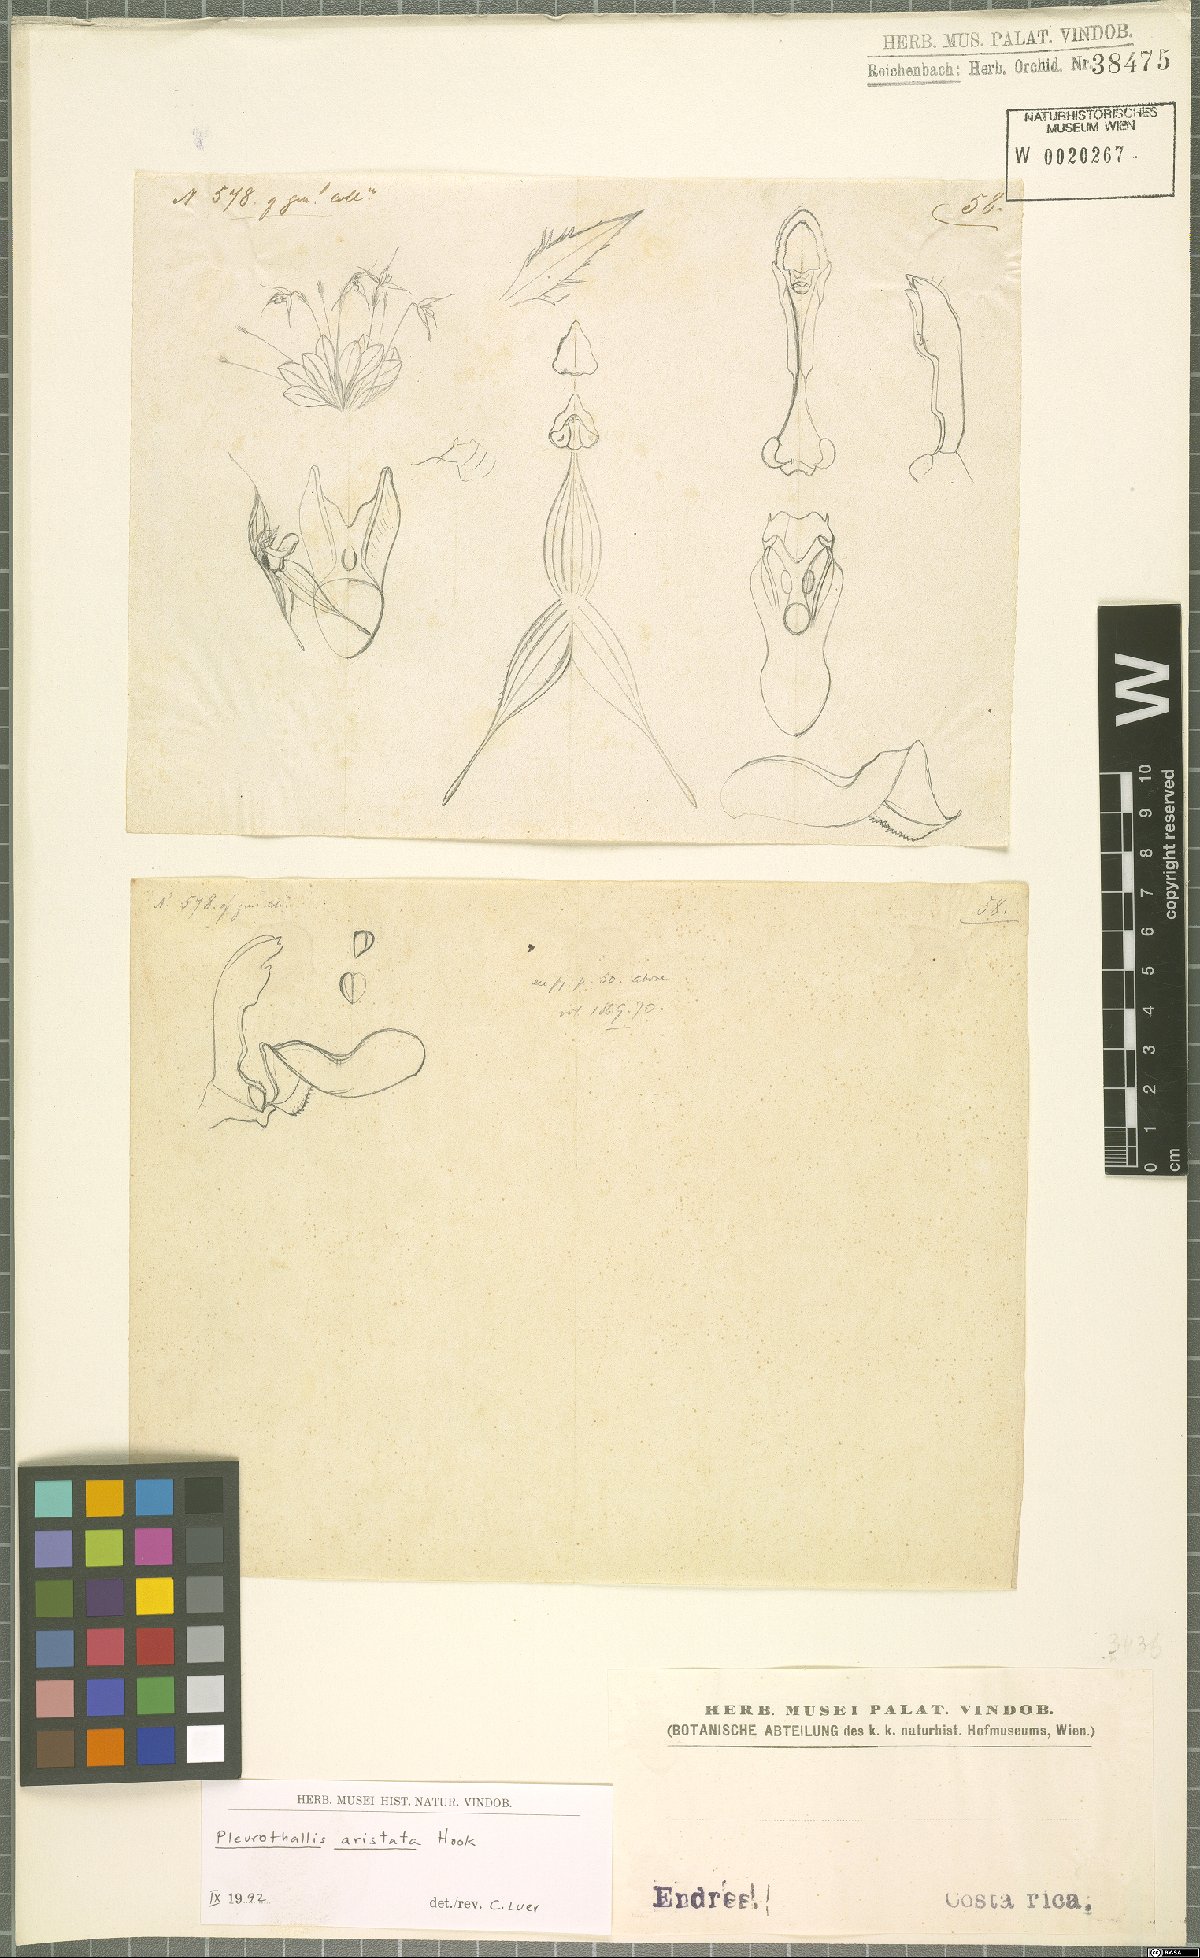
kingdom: Plantae
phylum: Tracheophyta
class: Liliopsida
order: Asparagales
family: Orchidaceae
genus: Muscarella
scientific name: Muscarella aristata
